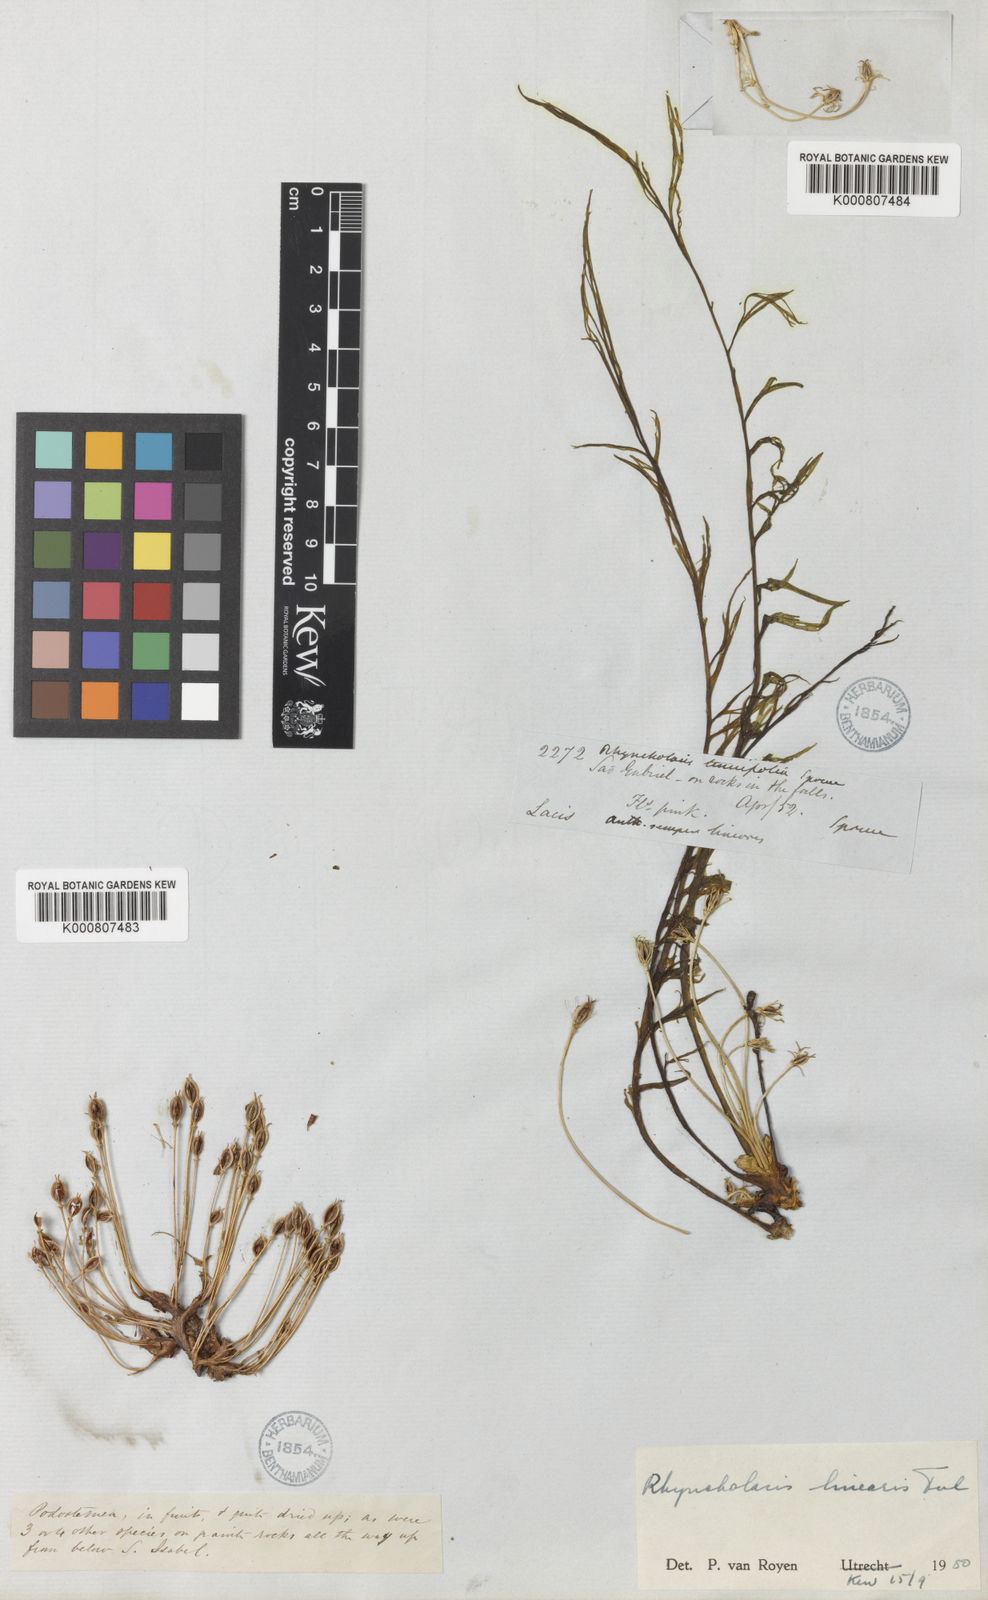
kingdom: Plantae
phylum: Tracheophyta
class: Magnoliopsida
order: Malpighiales
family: Podostemaceae
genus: Rhyncholacis
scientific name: Rhyncholacis linearis
